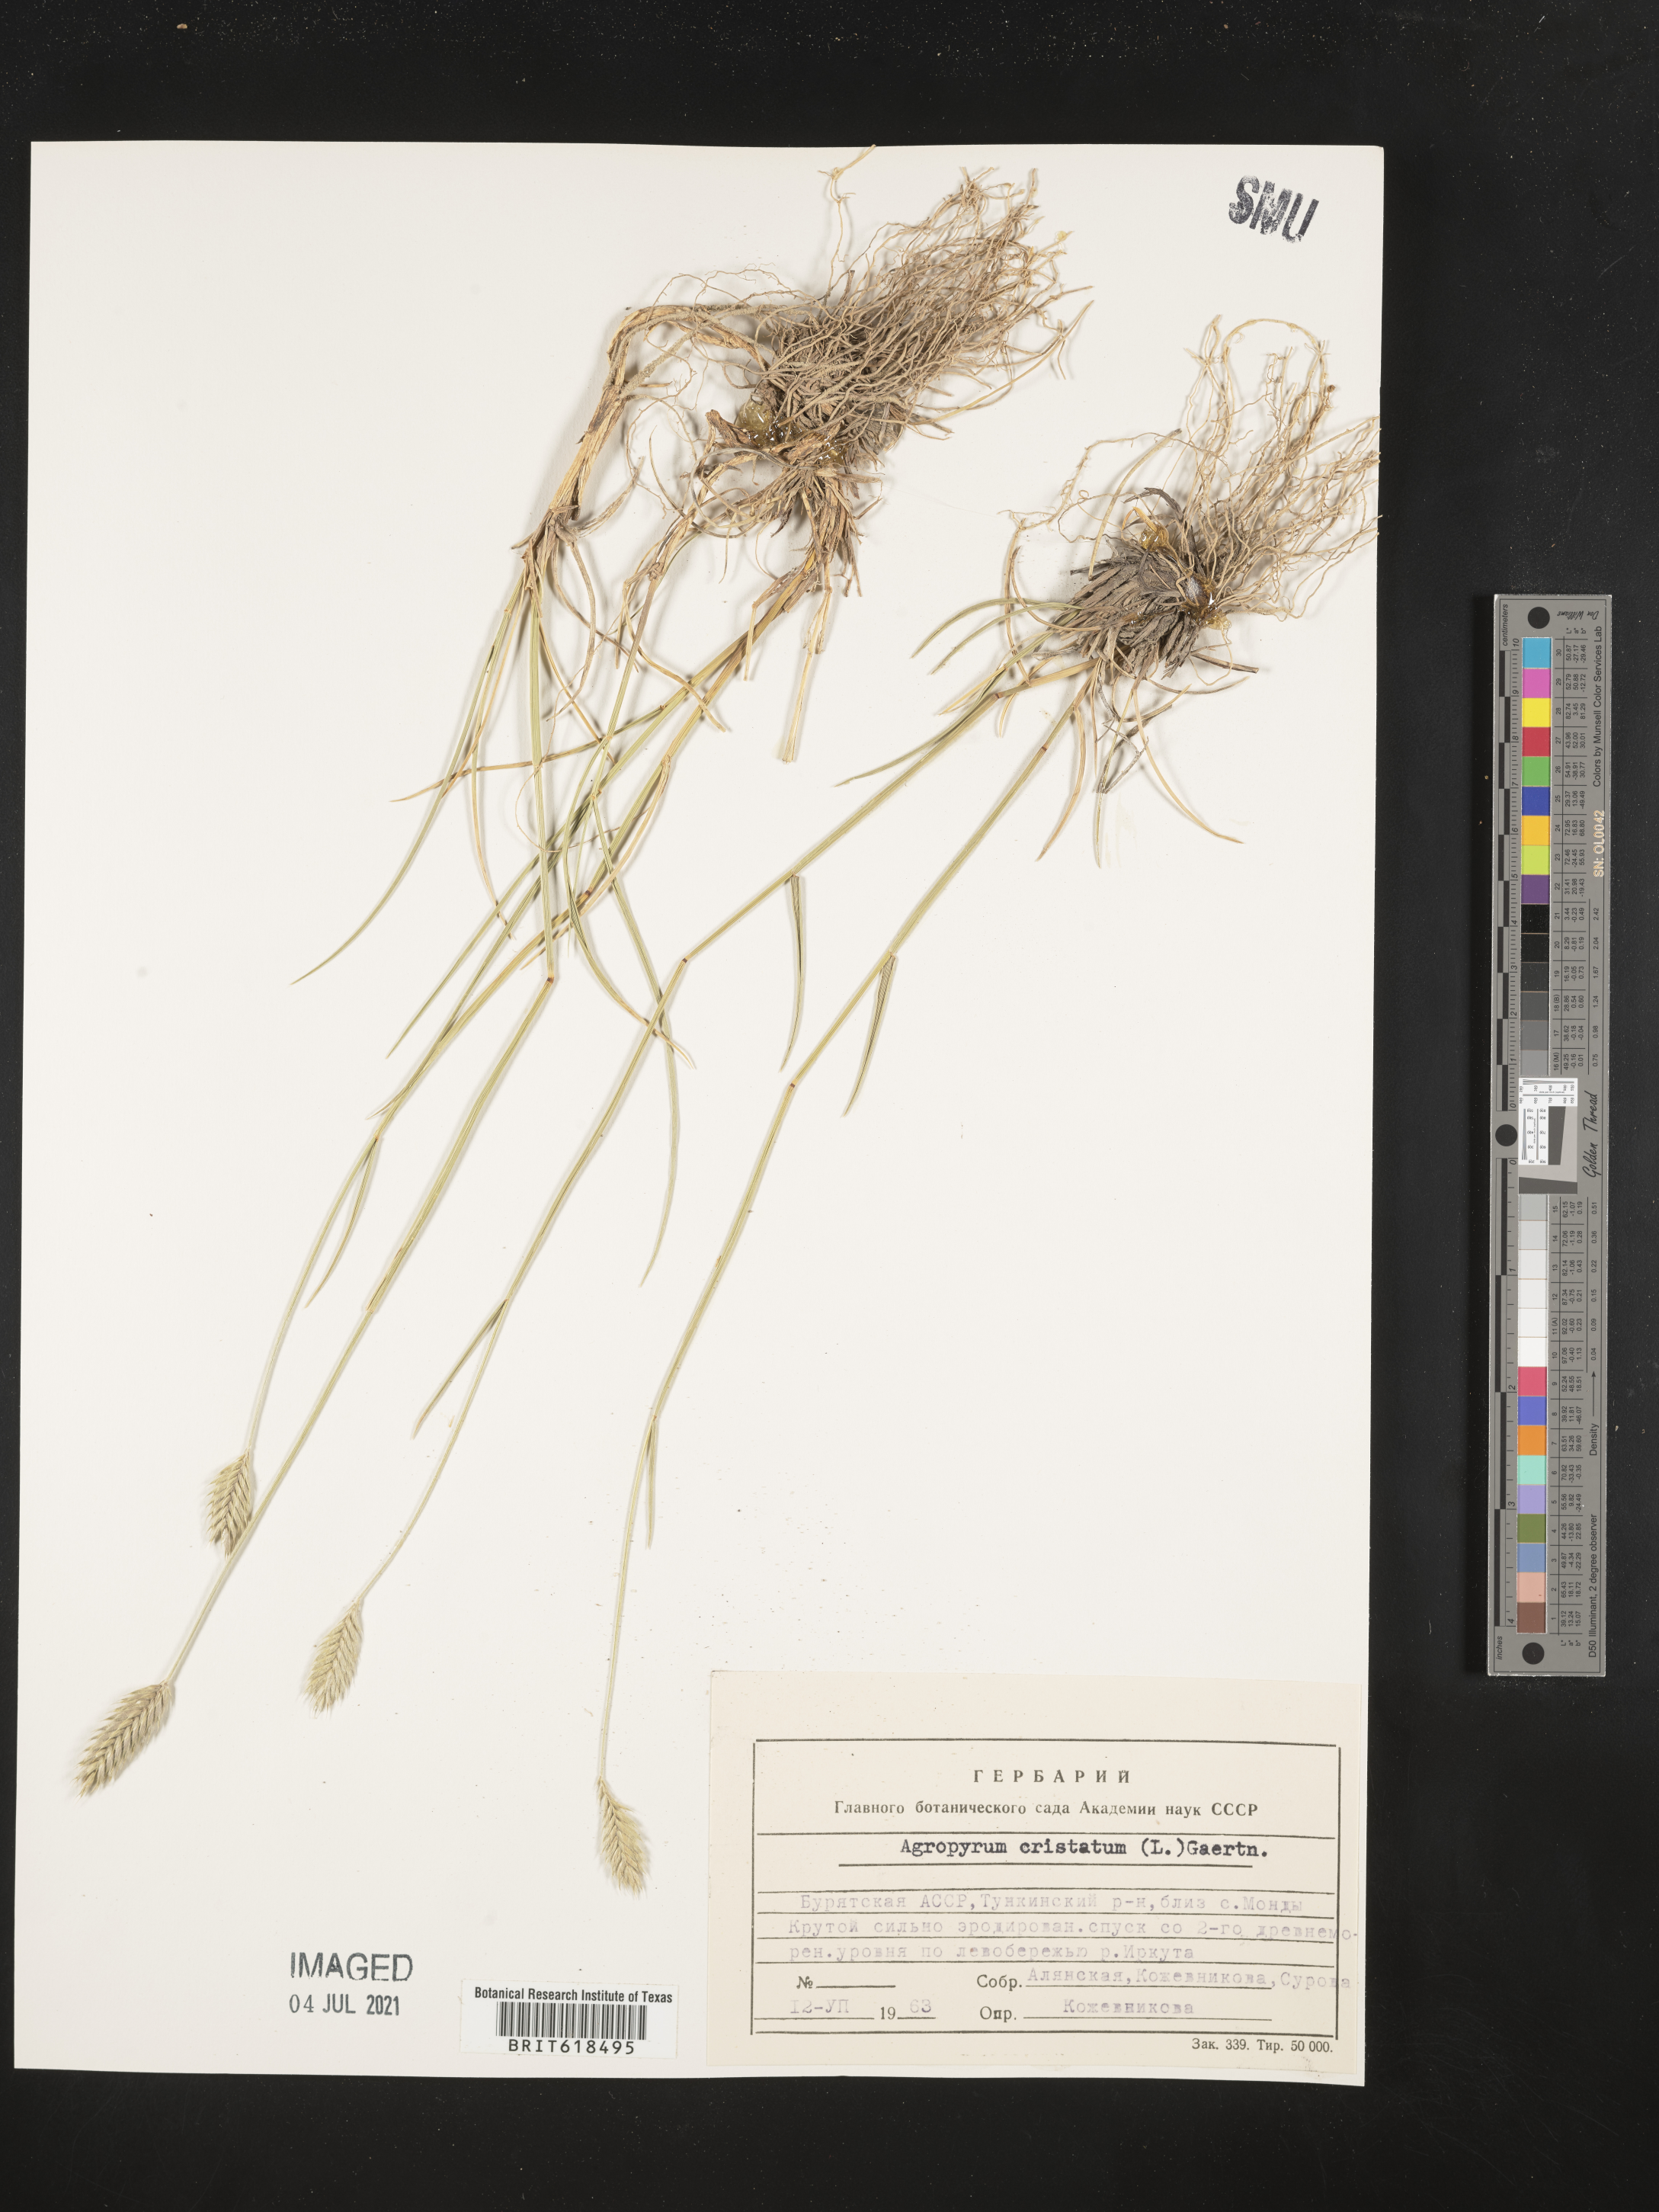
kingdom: Plantae
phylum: Tracheophyta
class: Liliopsida
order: Poales
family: Poaceae
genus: Agropyron
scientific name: Agropyron cristatum
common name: Crested wheatgrass
